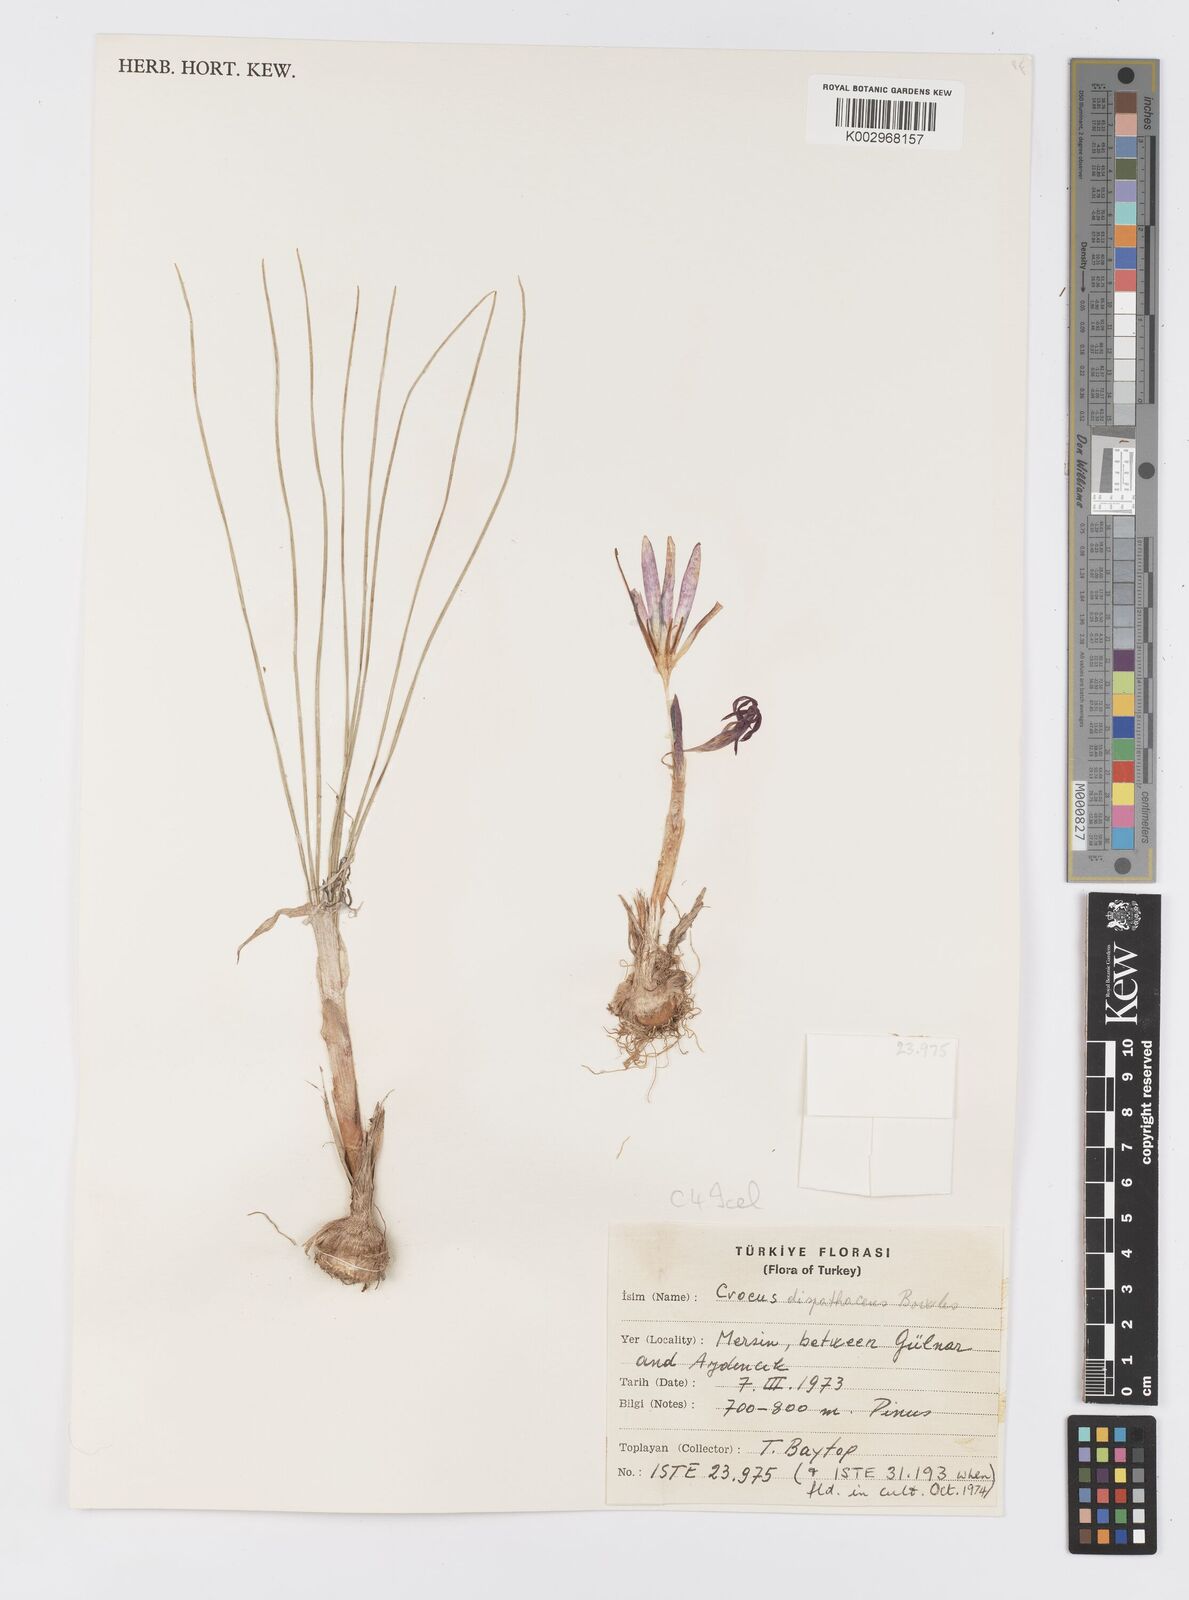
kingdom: Plantae
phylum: Tracheophyta
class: Liliopsida
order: Asparagales
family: Iridaceae
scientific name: Iridaceae
